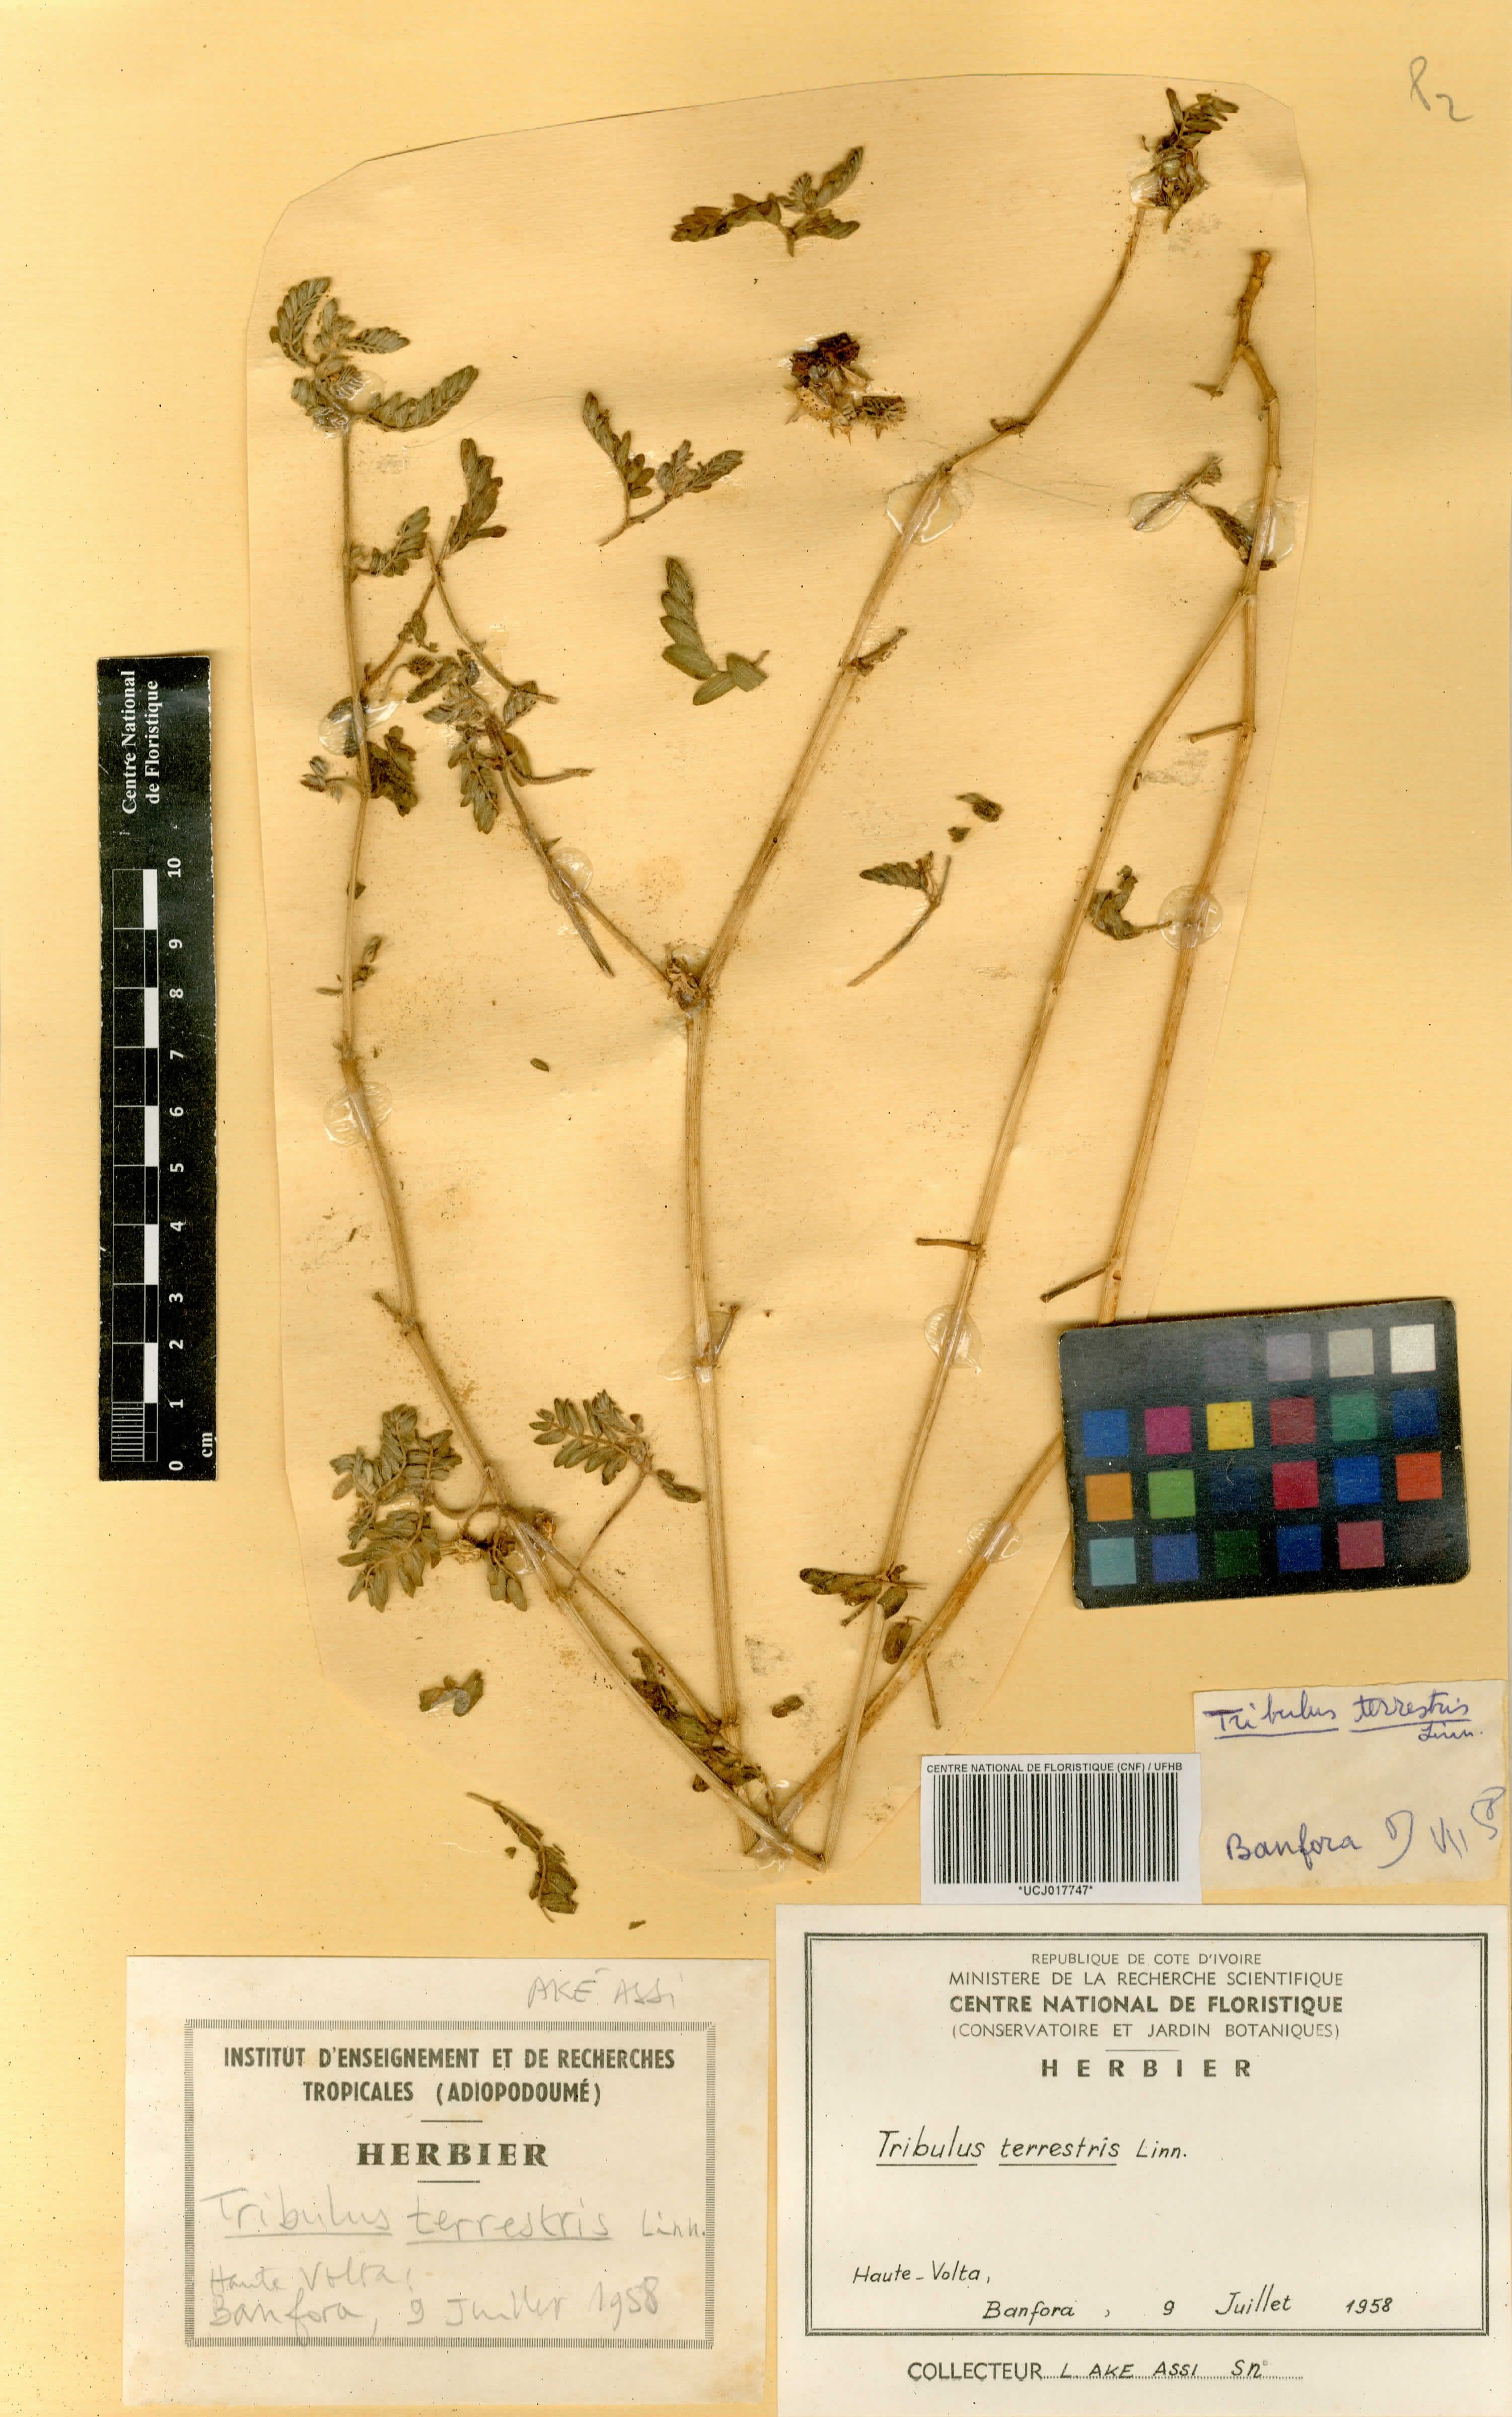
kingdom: Plantae
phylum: Tracheophyta
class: Magnoliopsida
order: Zygophyllales
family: Zygophyllaceae
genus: Tribulus
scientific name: Tribulus terrestris
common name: Puncturevine
